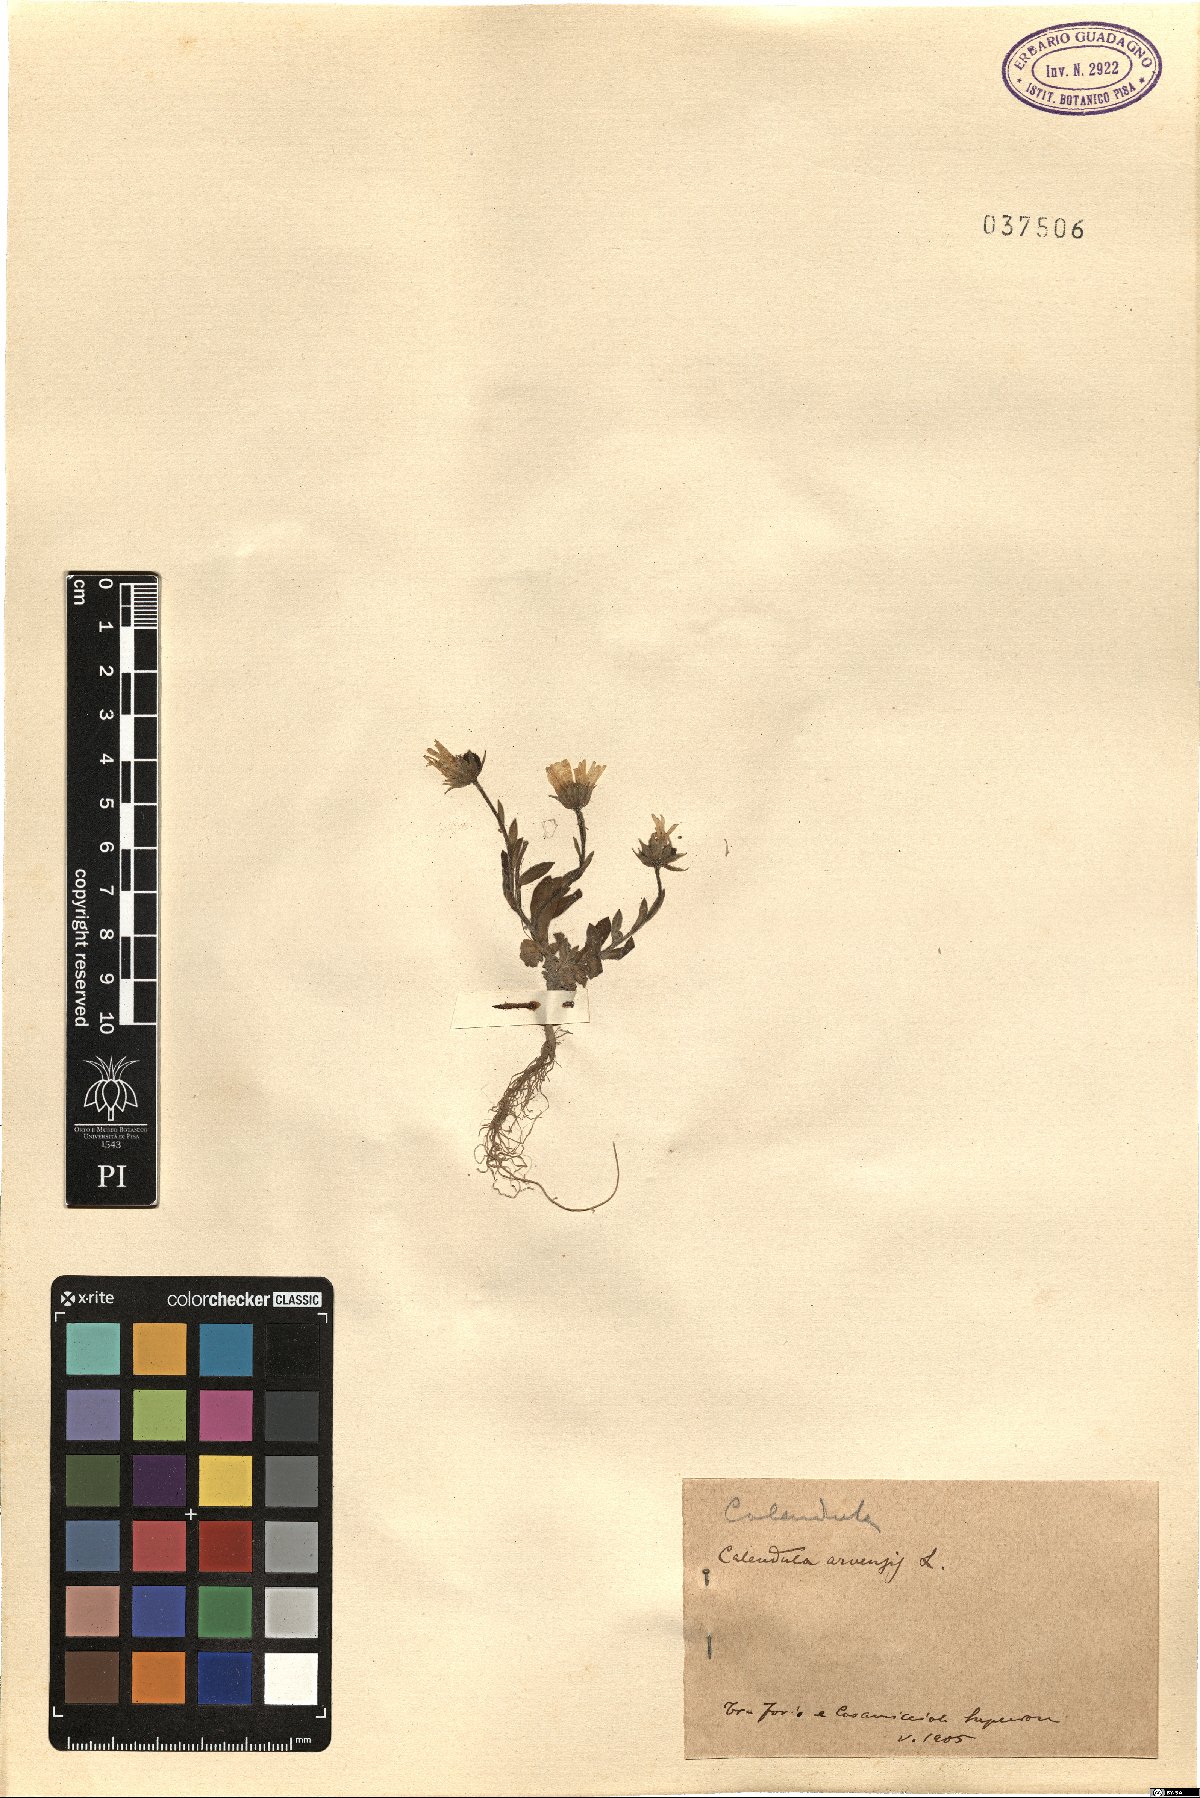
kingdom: Plantae
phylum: Tracheophyta
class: Magnoliopsida
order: Asterales
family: Asteraceae
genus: Calendula
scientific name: Calendula arvensis
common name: Field marigold
